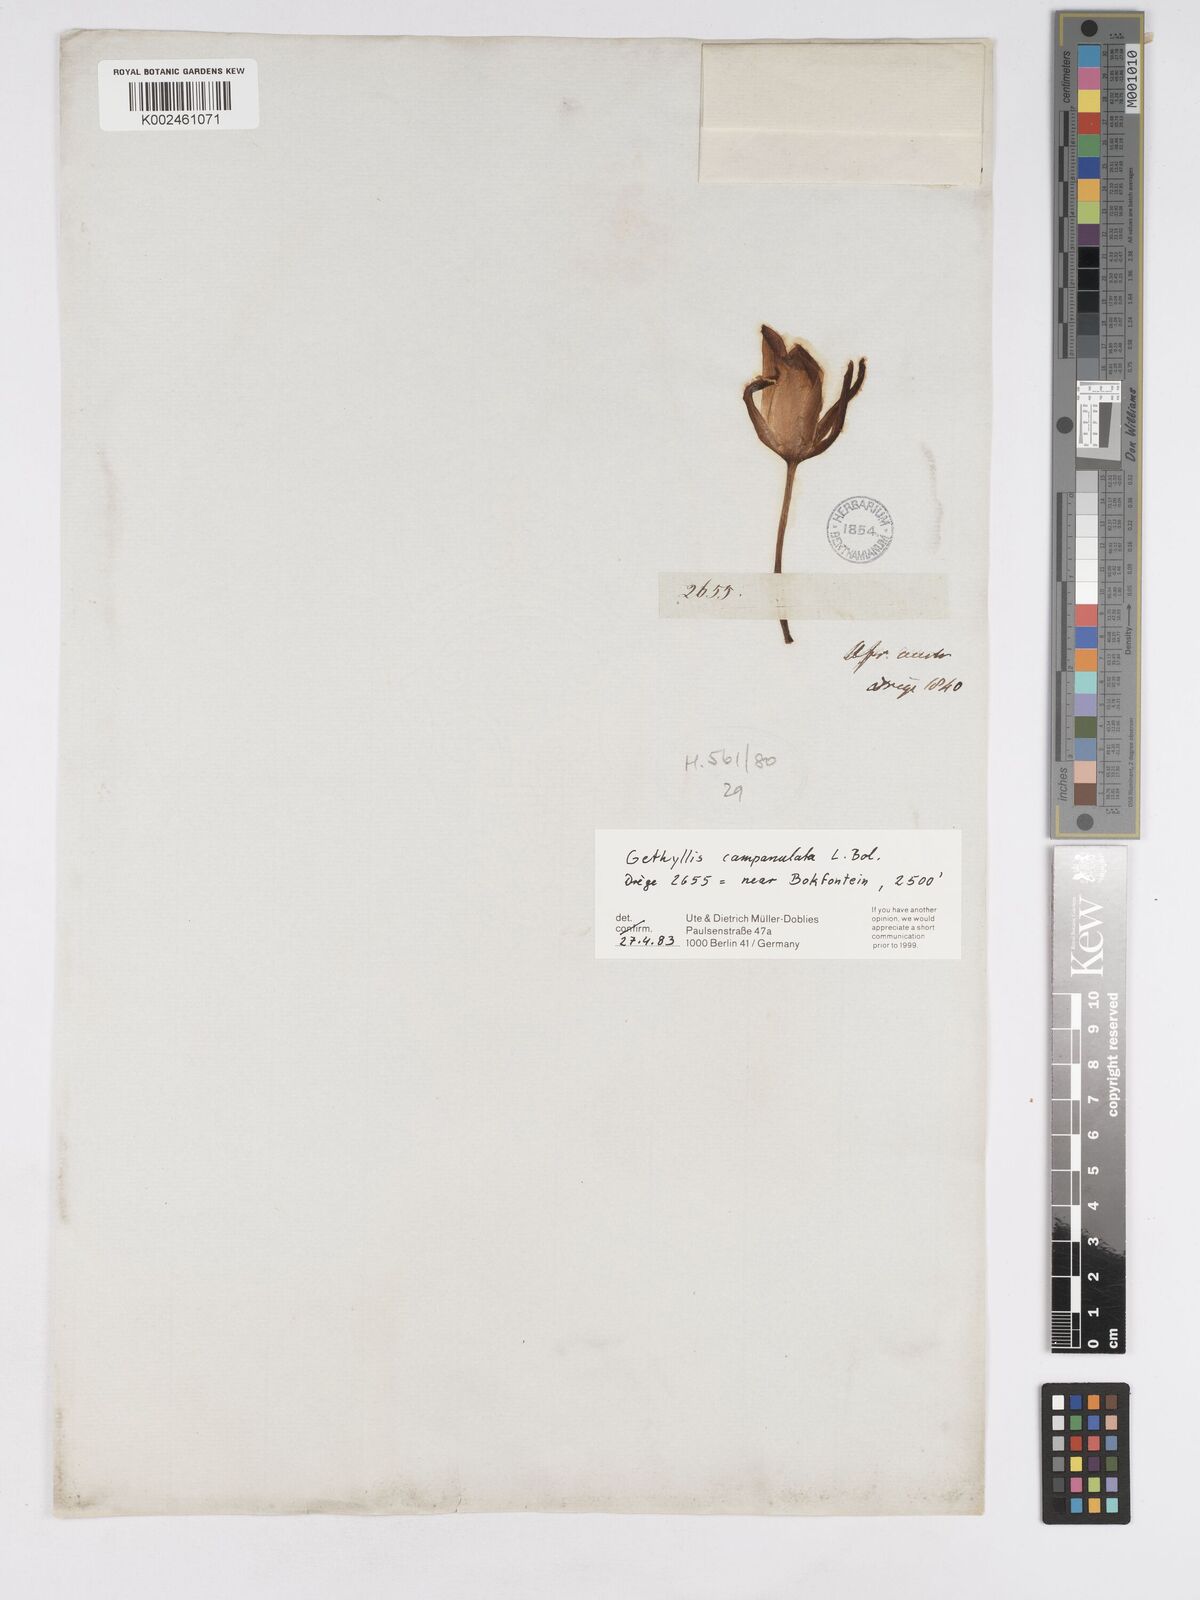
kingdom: Plantae
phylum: Tracheophyta
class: Liliopsida
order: Asparagales
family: Amaryllidaceae
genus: Gethyllis
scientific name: Gethyllis campanulata
